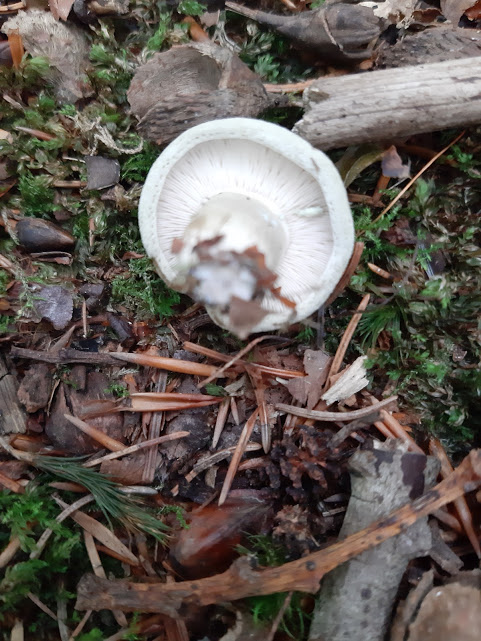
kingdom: Fungi
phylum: Basidiomycota
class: Agaricomycetes
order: Russulales
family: Russulaceae
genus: Lactarius
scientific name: Lactarius blennius
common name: dråbeplettet mælkehat
